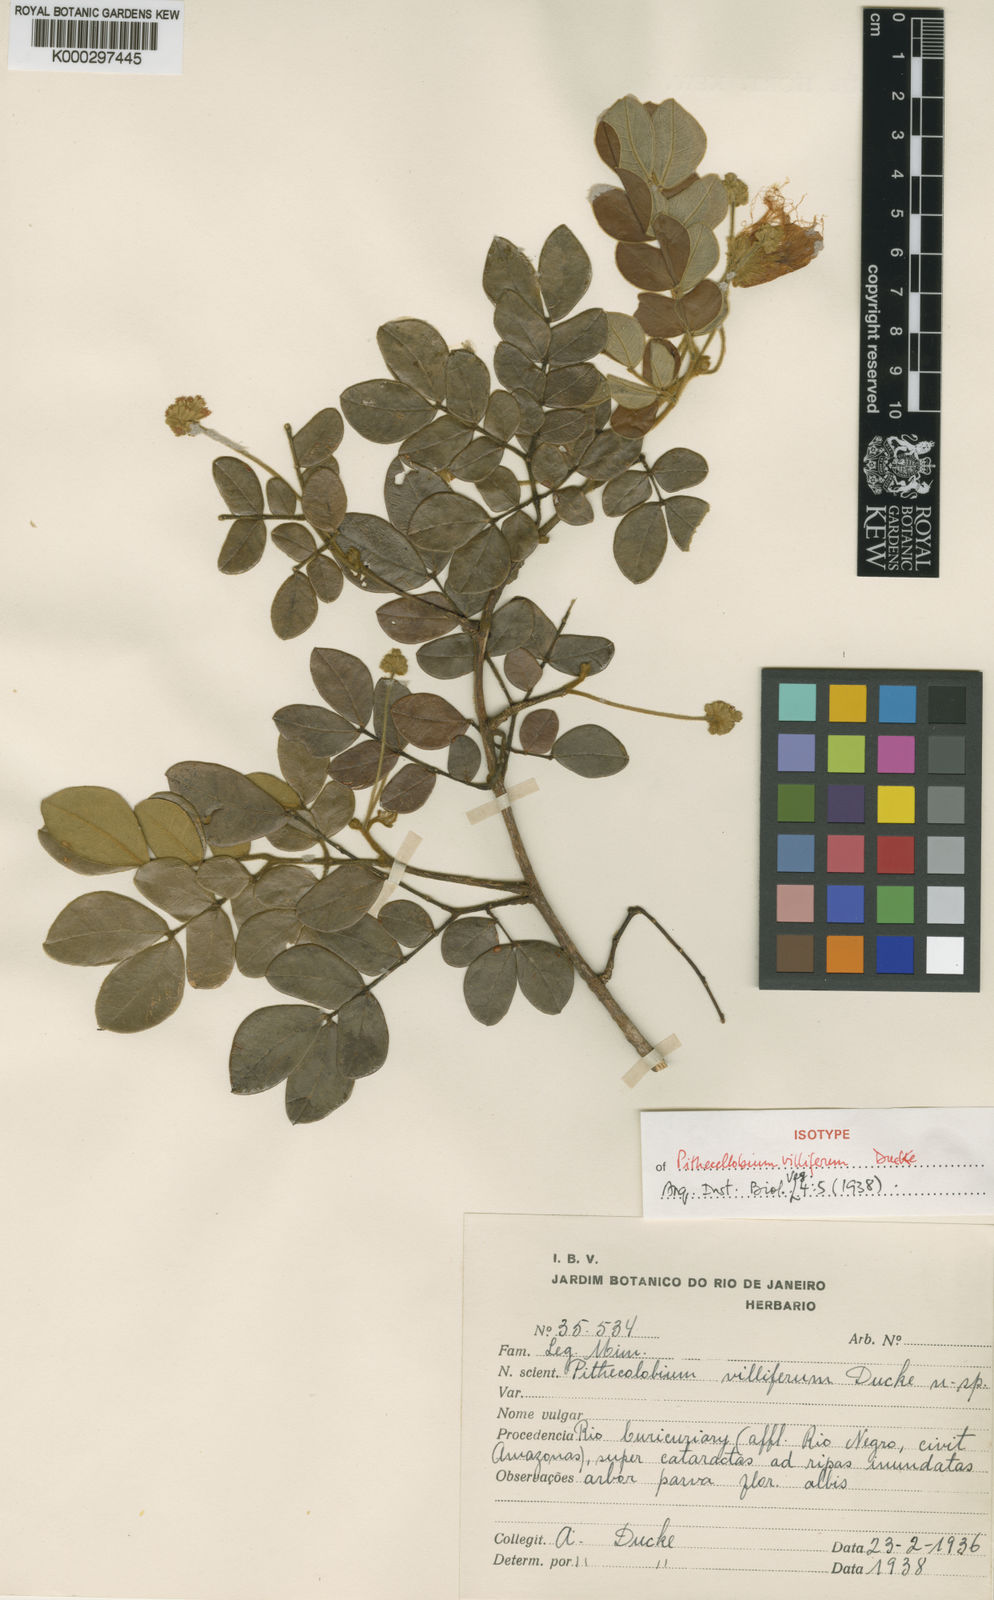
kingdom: Plantae
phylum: Tracheophyta
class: Magnoliopsida
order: Fabales
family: Fabaceae
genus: Jupunba
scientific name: Jupunba villifera
